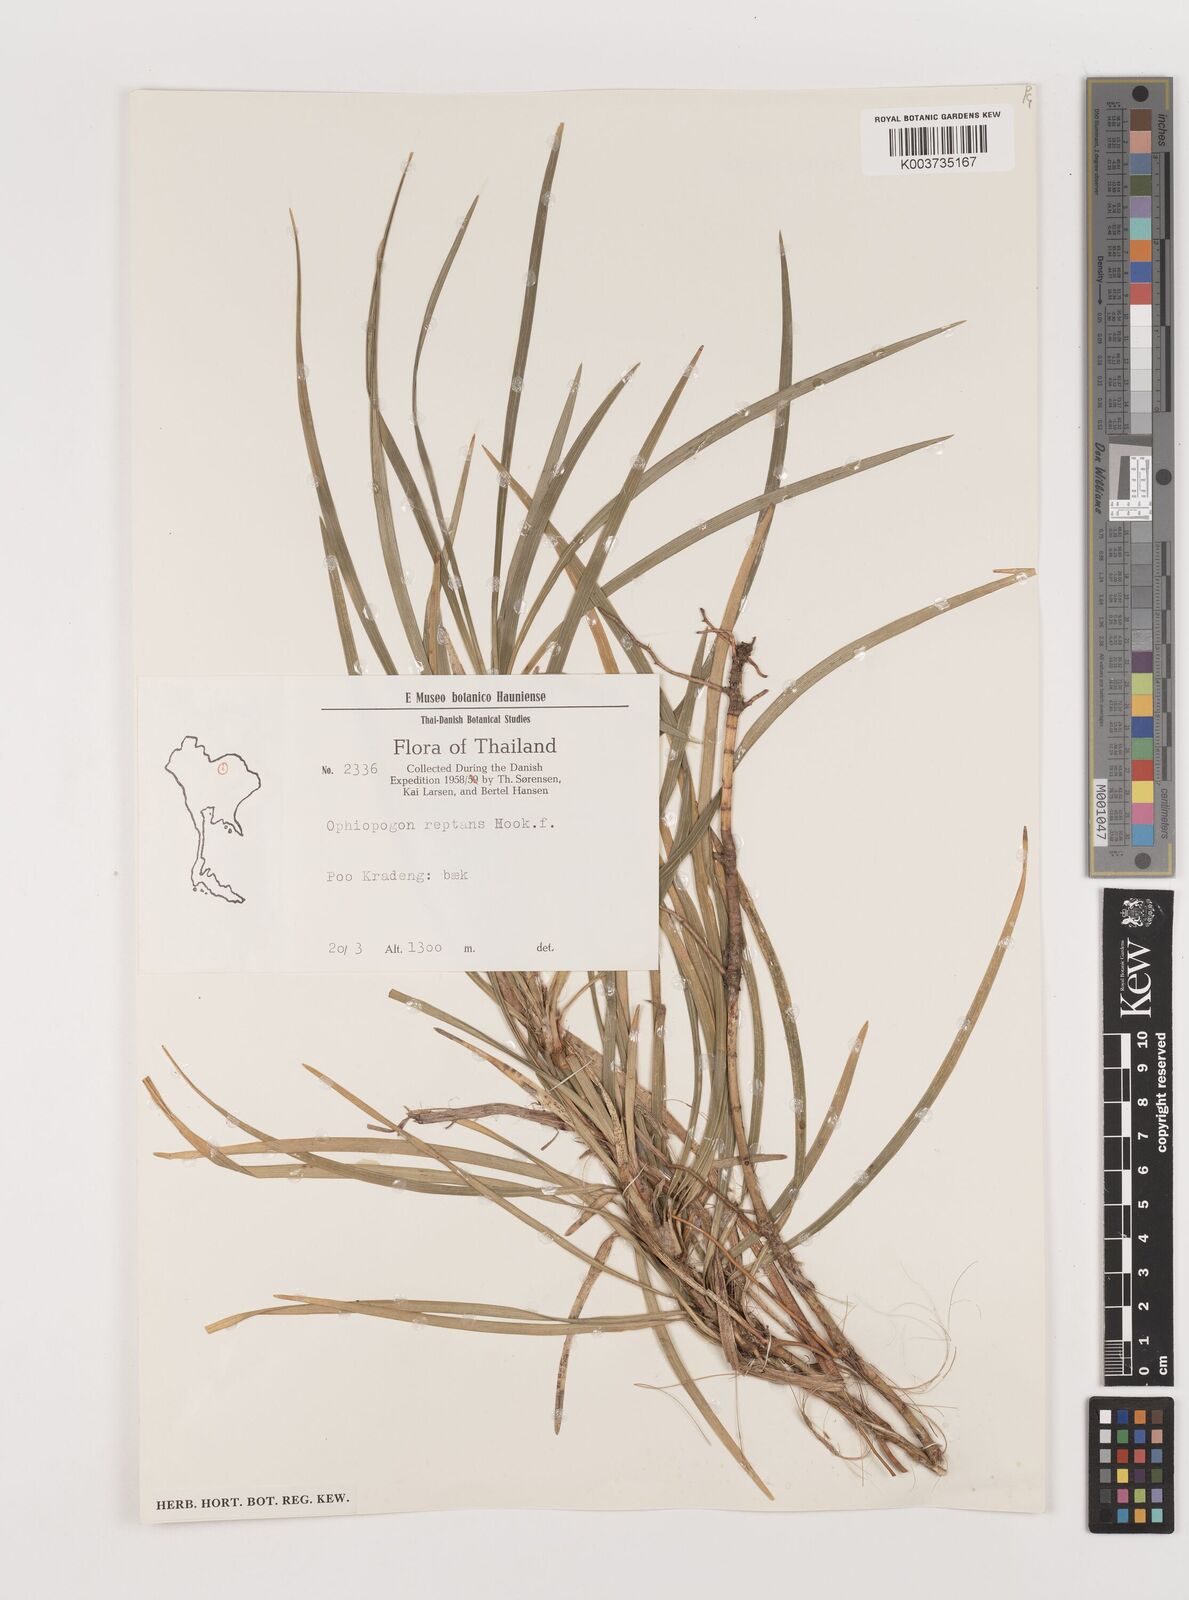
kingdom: Plantae
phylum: Tracheophyta
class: Liliopsida
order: Asparagales
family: Asparagaceae
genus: Ophiopogon
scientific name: Ophiopogon reptans
